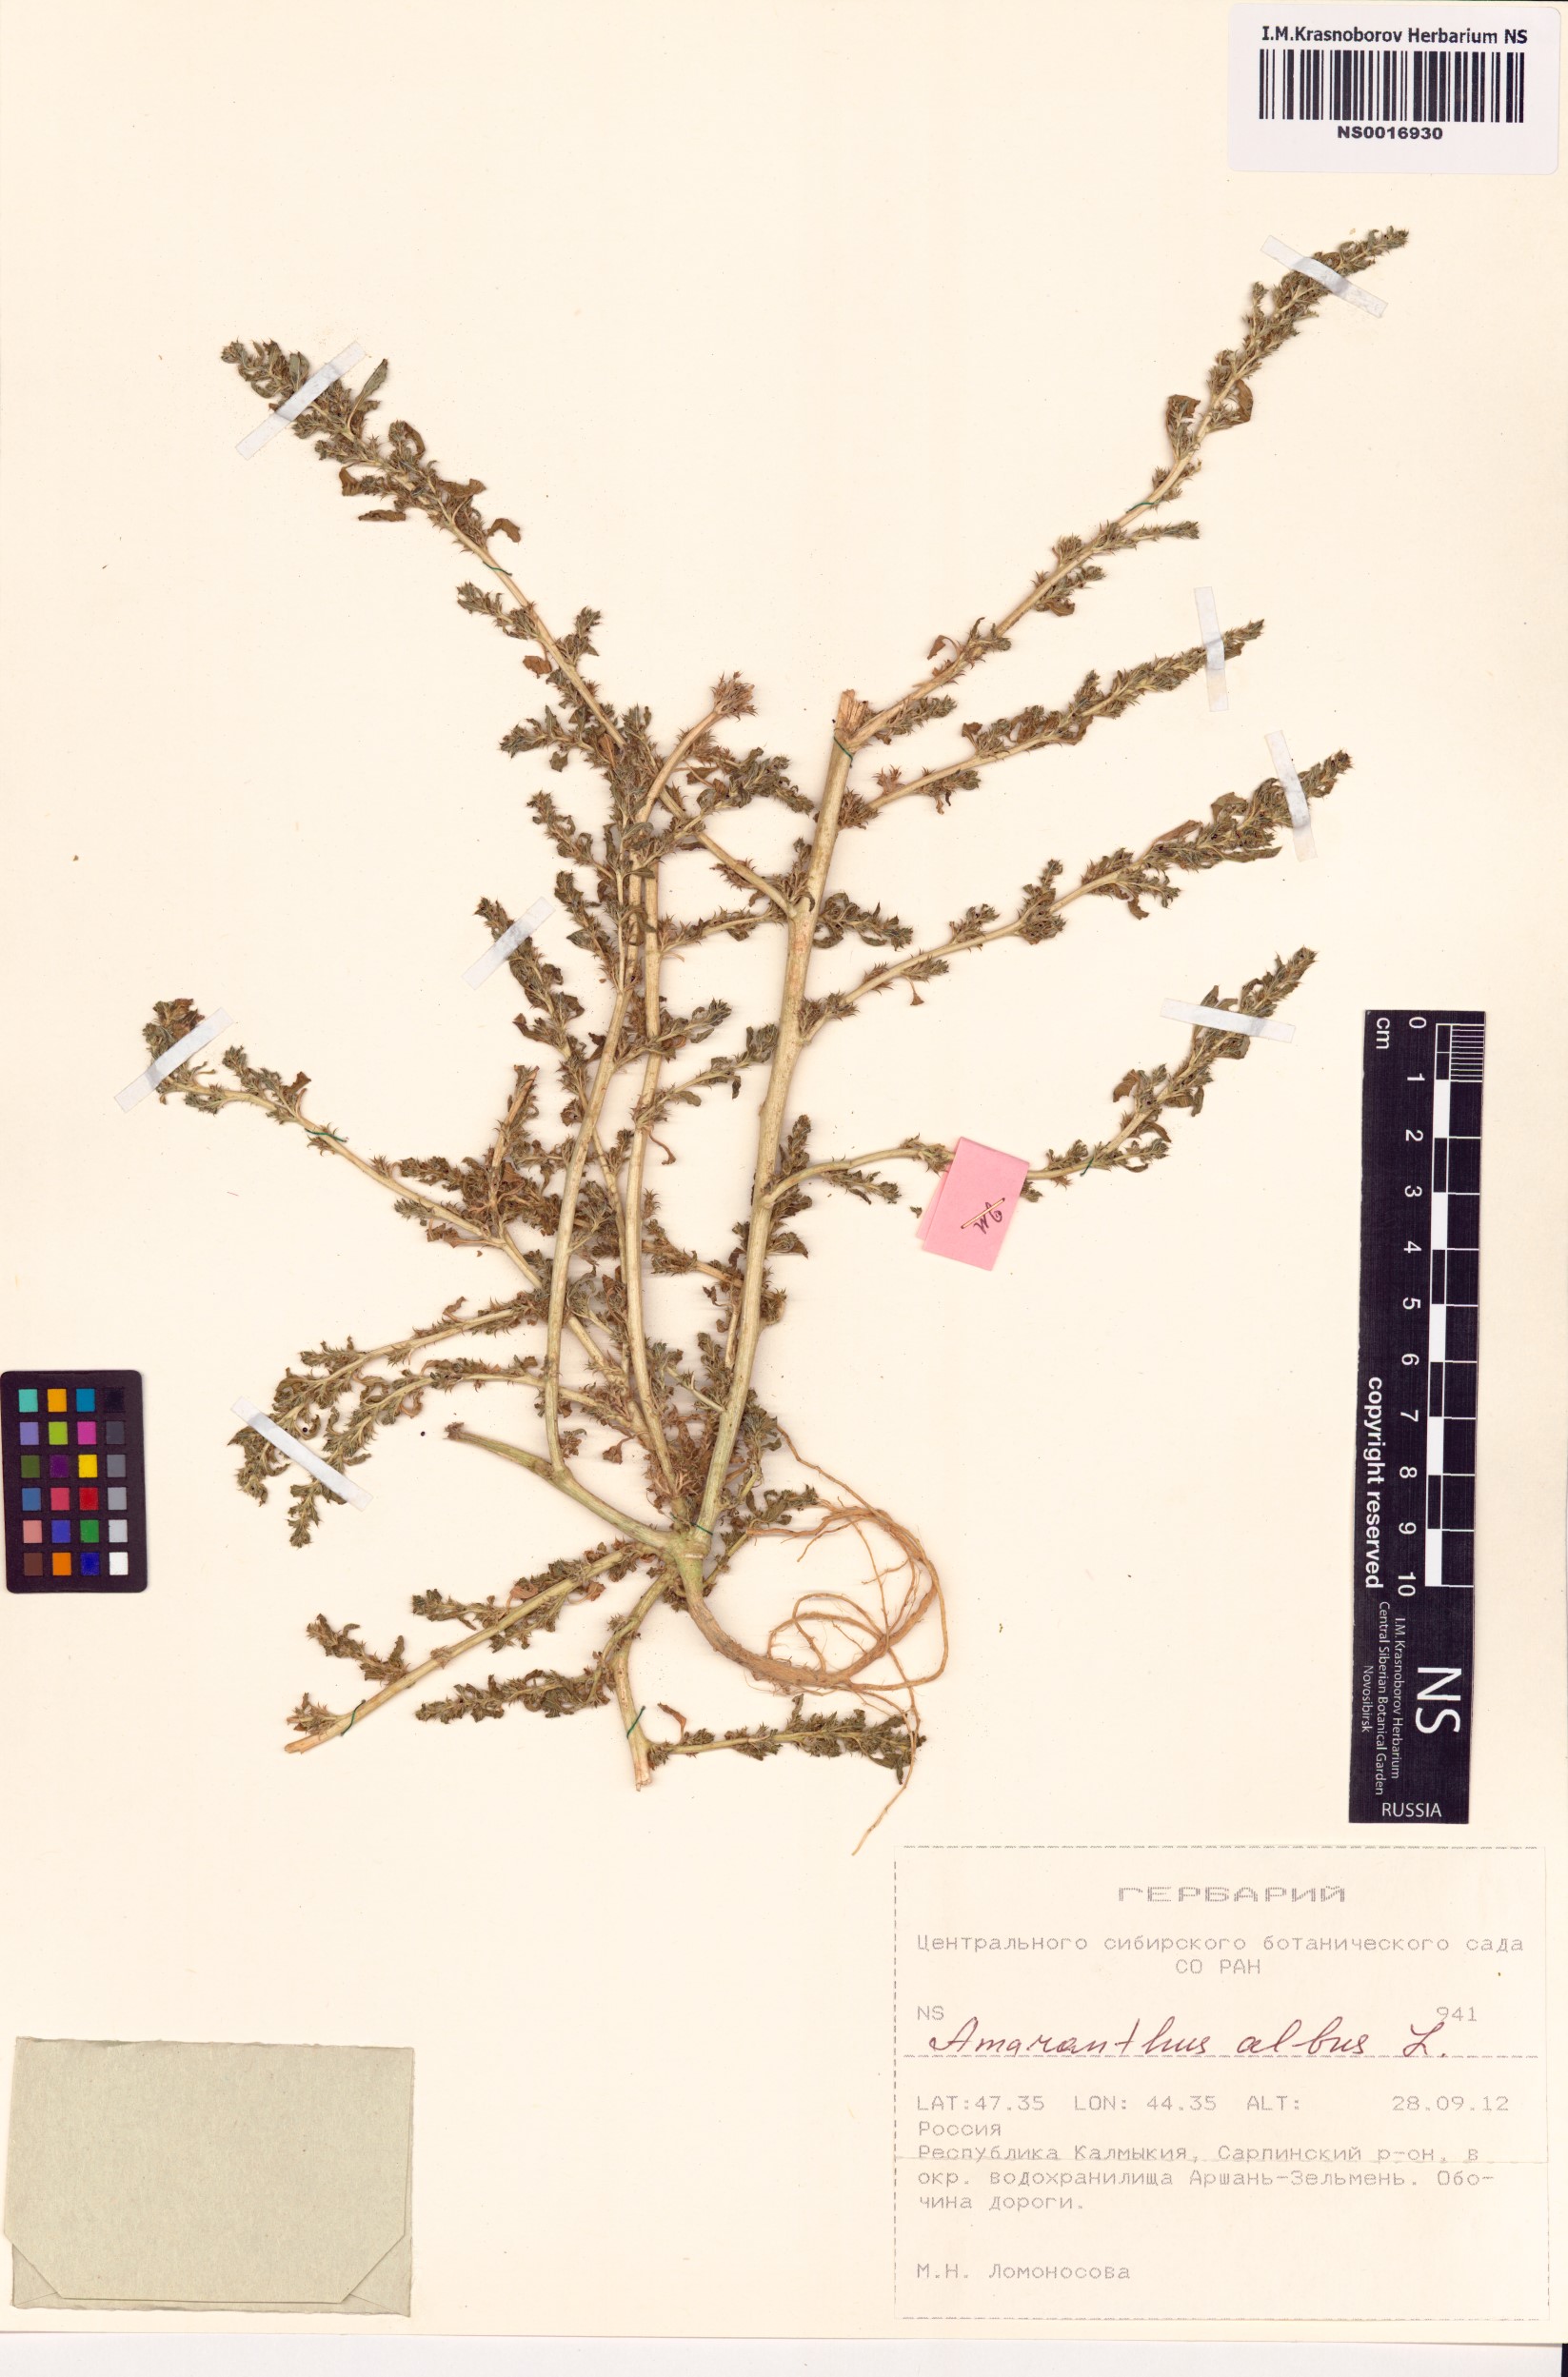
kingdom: Plantae
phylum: Tracheophyta
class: Magnoliopsida
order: Caryophyllales
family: Amaranthaceae
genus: Amaranthus
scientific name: Amaranthus albus
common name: White pigweed
